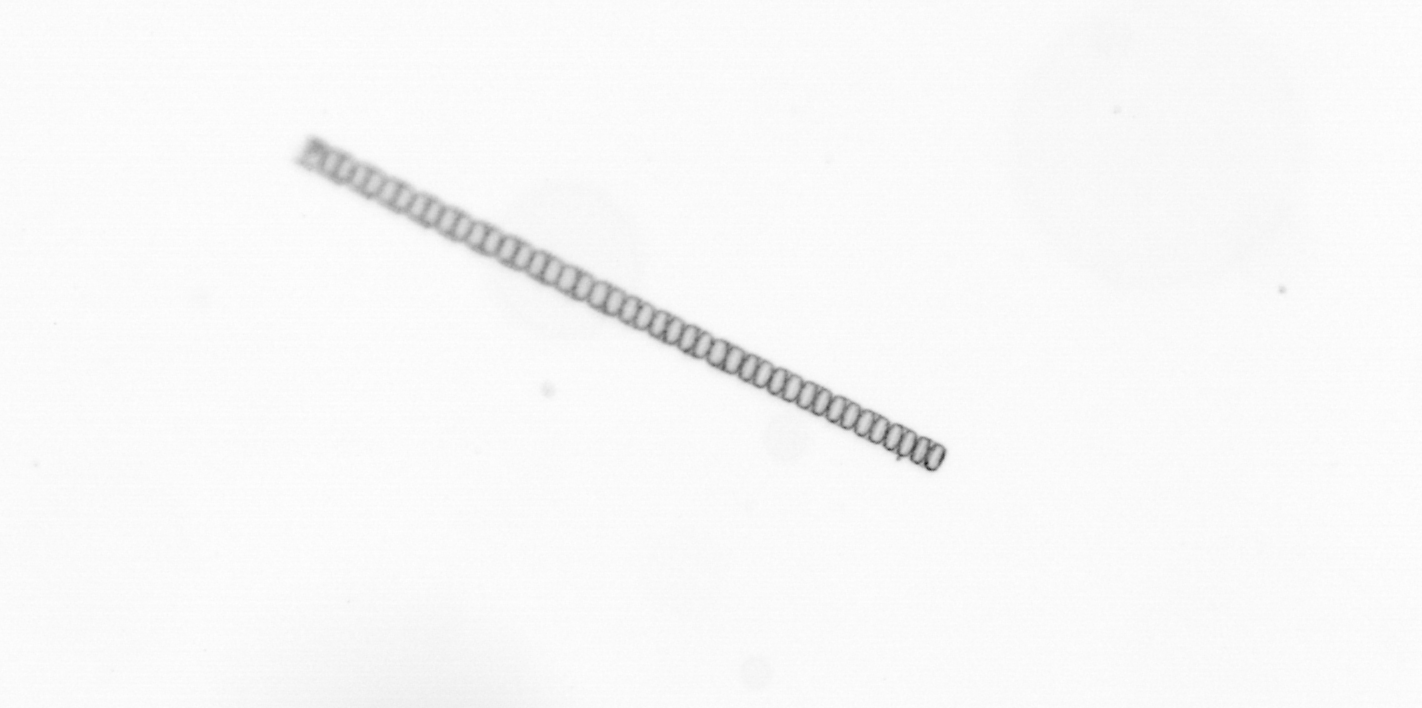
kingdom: Chromista
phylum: Ochrophyta
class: Bacillariophyceae
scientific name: Bacillariophyceae
